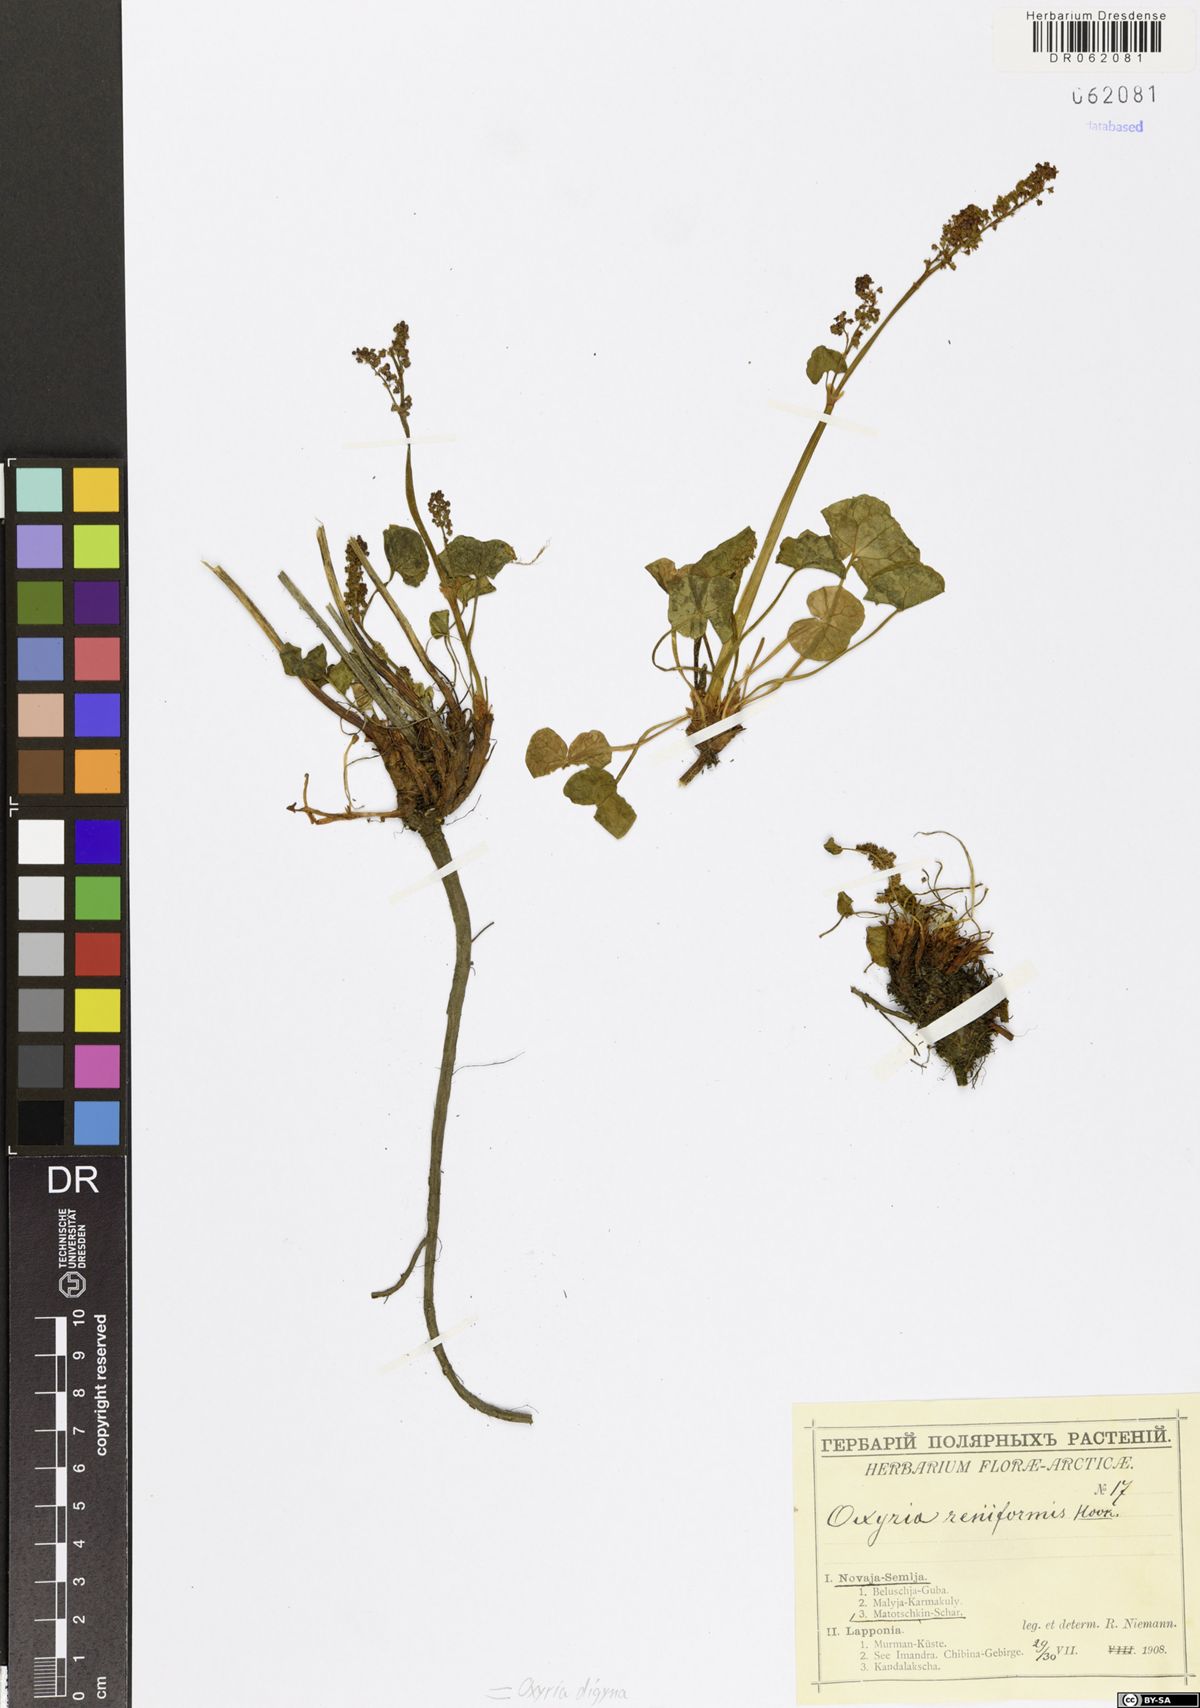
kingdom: Plantae
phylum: Tracheophyta
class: Magnoliopsida
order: Caryophyllales
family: Polygonaceae
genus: Oxyria
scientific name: Oxyria digyna
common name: Alpine mountain-sorrel
